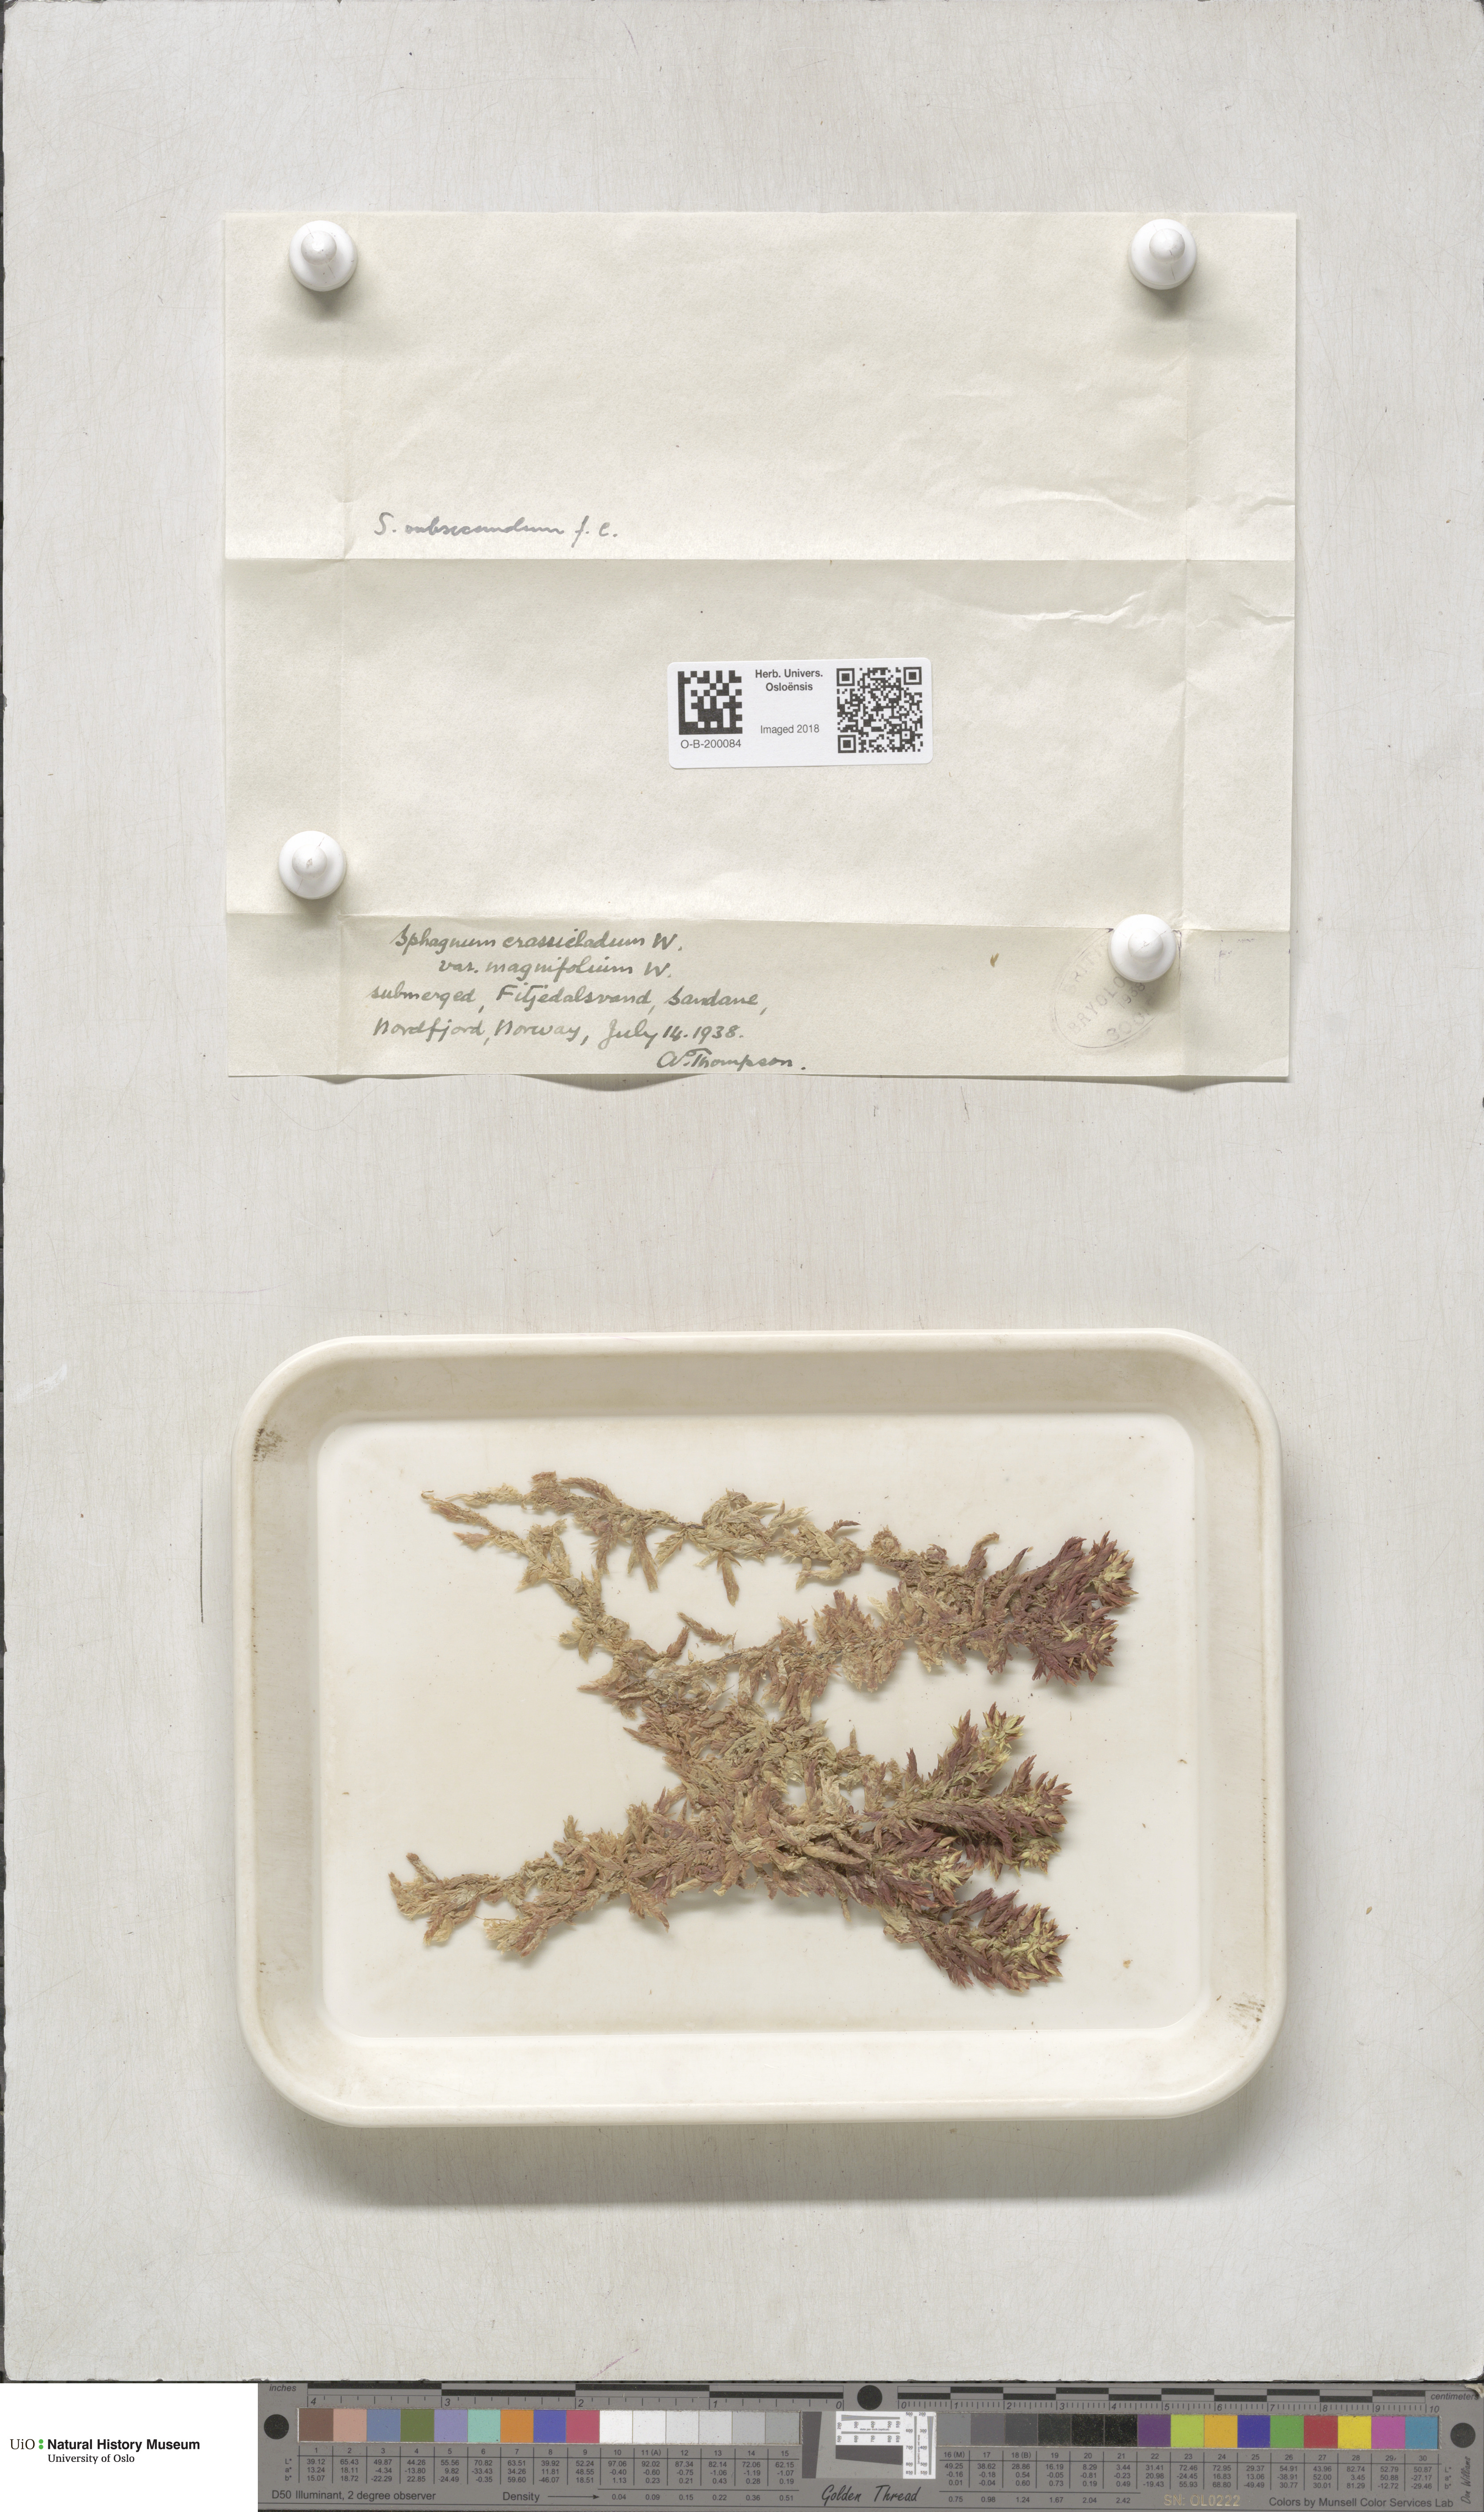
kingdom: Plantae
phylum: Bryophyta
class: Sphagnopsida
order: Sphagnales
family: Sphagnaceae
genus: Sphagnum
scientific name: Sphagnum denticulatum
